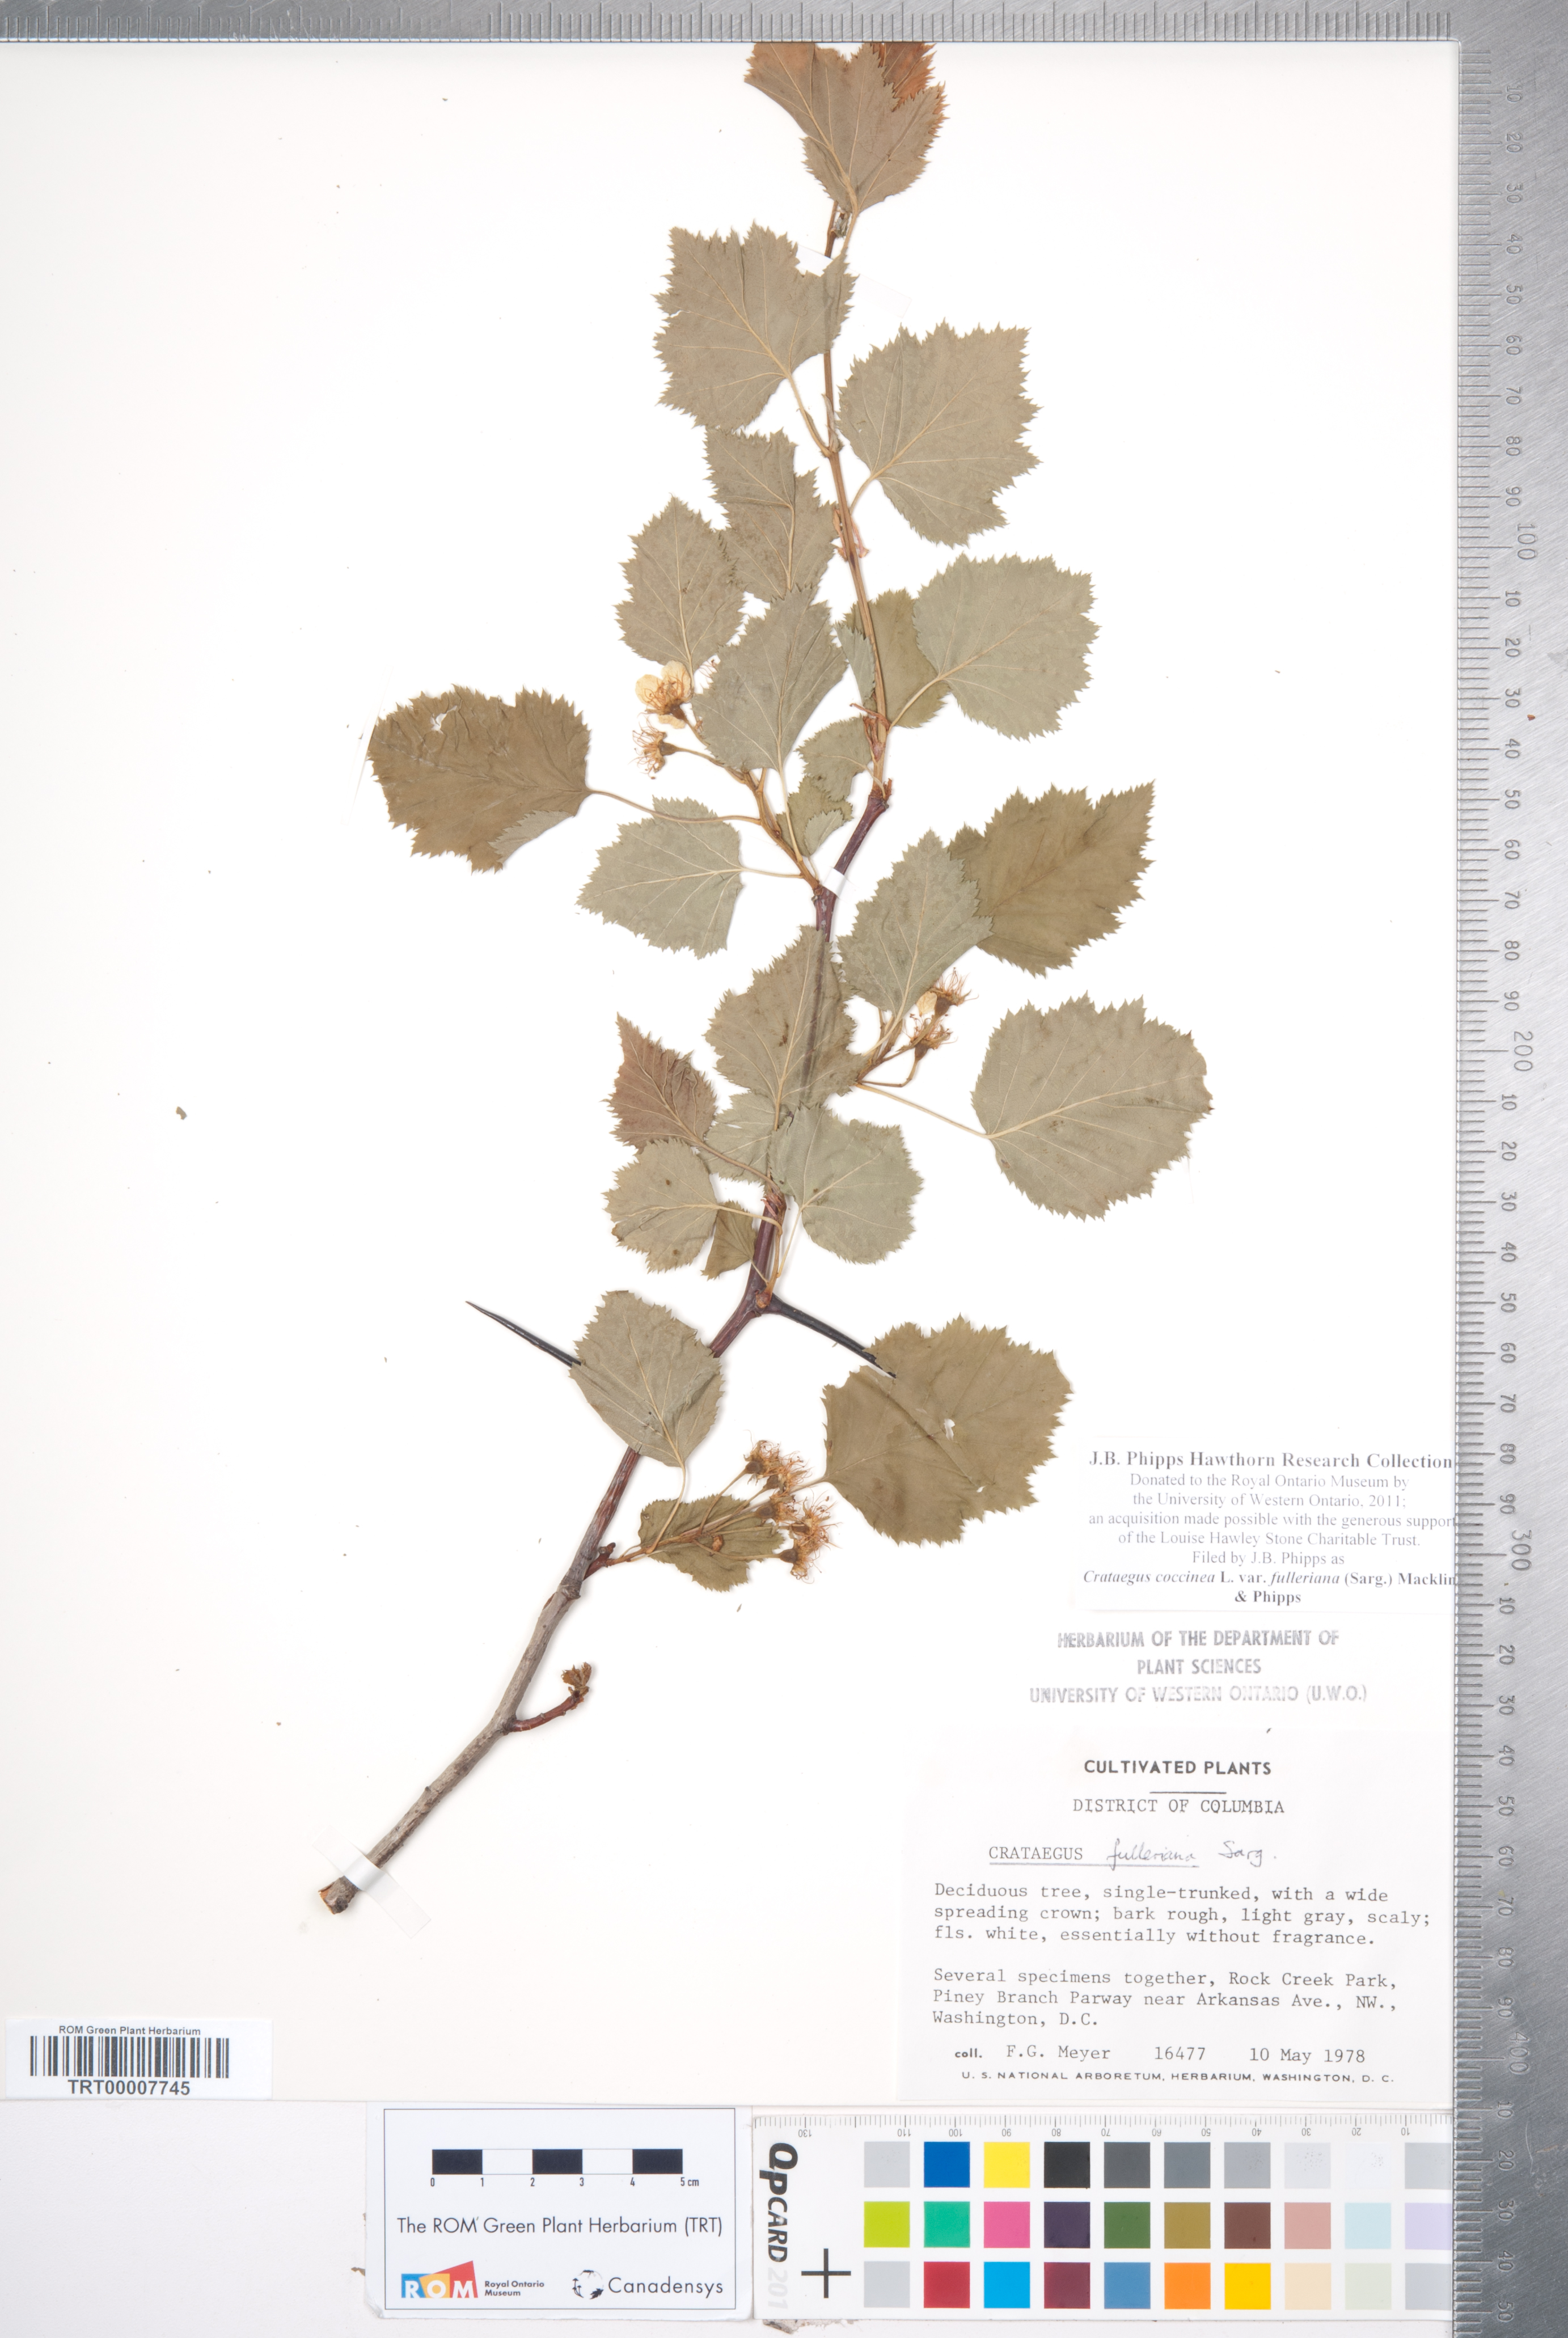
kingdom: Plantae
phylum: Tracheophyta
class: Magnoliopsida
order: Rosales
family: Rosaceae
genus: Crataegus
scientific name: Crataegus coccinea
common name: Scarlet hawthorn
